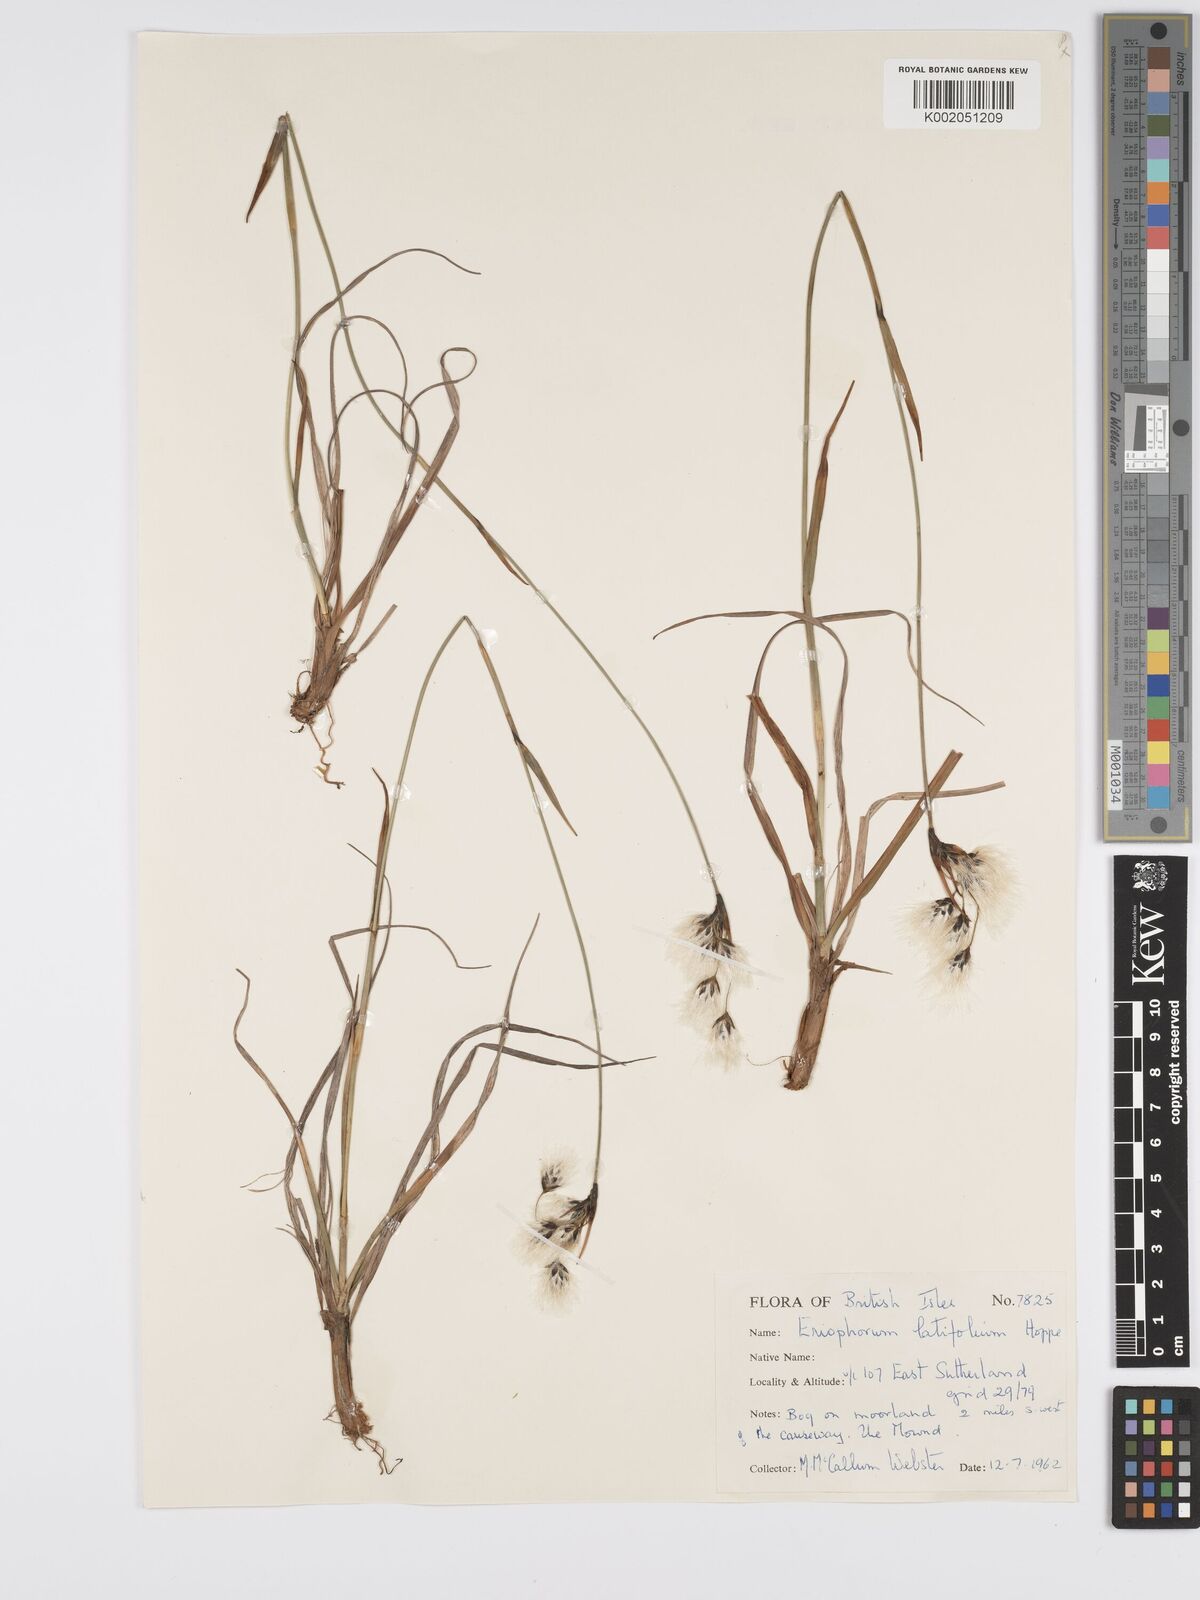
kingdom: Plantae
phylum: Tracheophyta
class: Liliopsida
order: Poales
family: Cyperaceae
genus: Eriophorum
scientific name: Eriophorum latifolium
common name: Broad-leaved cottongrass
